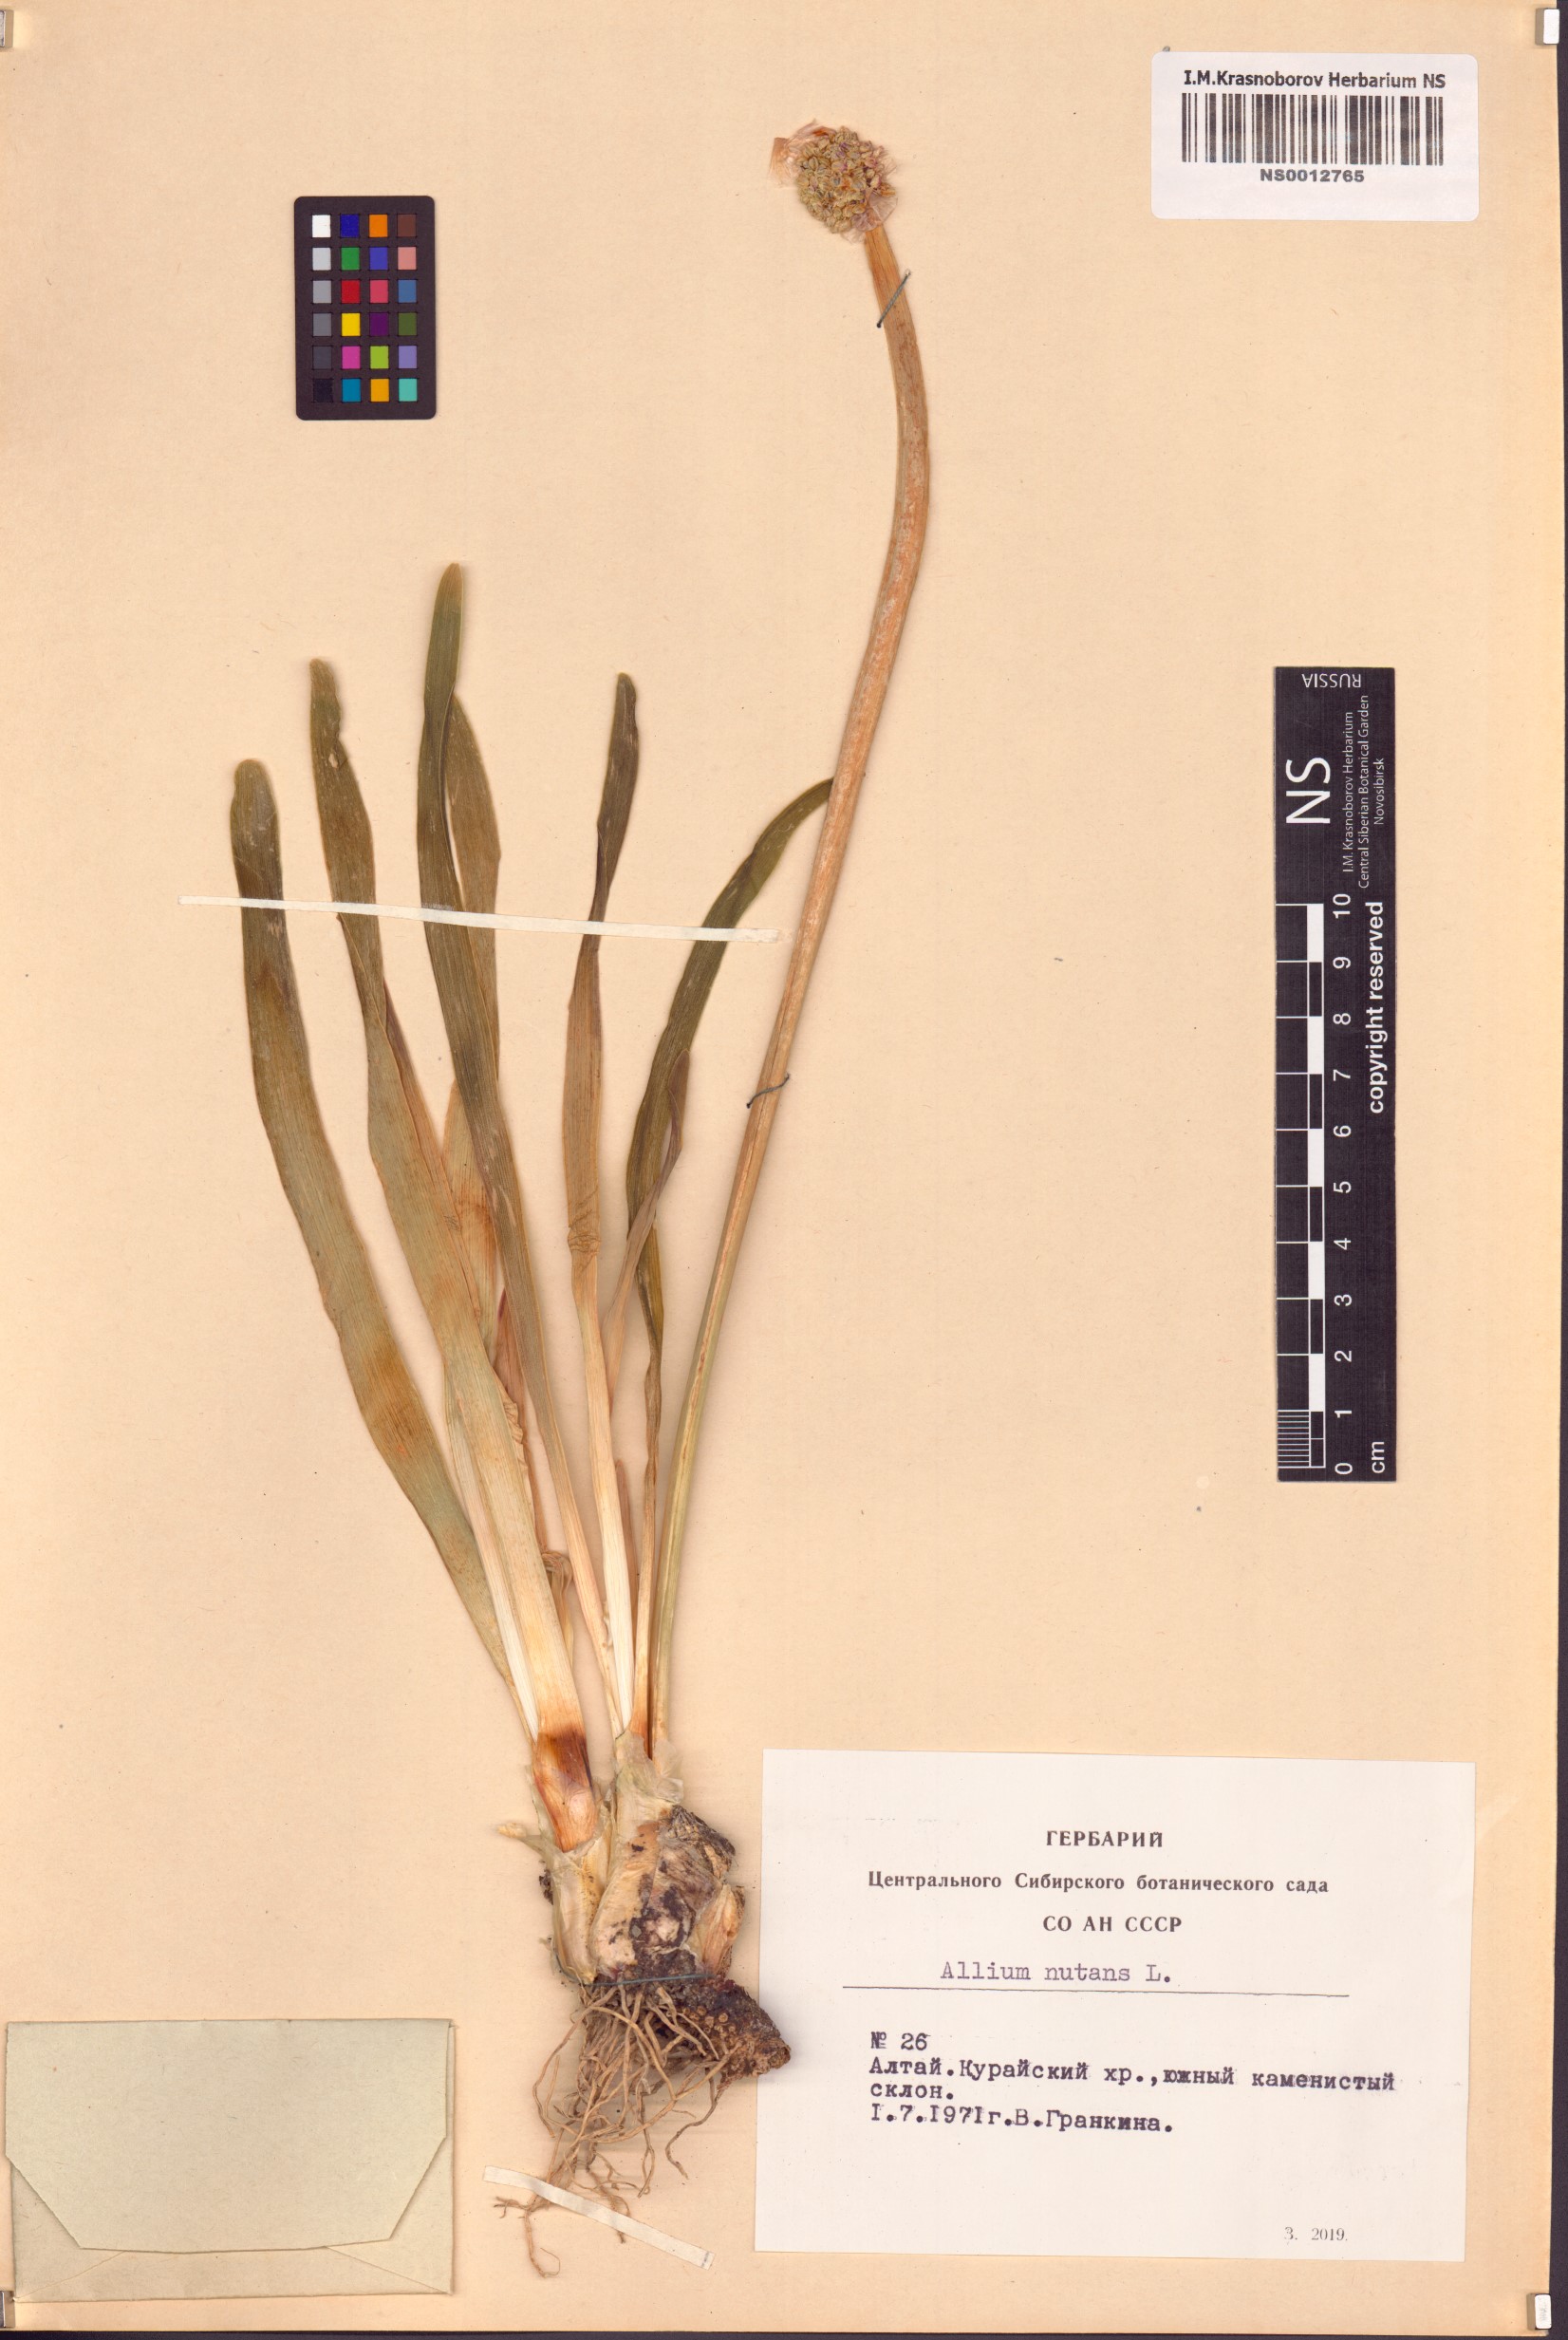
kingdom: Plantae
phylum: Tracheophyta
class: Liliopsida
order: Asparagales
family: Amaryllidaceae
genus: Allium
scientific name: Allium nutans
